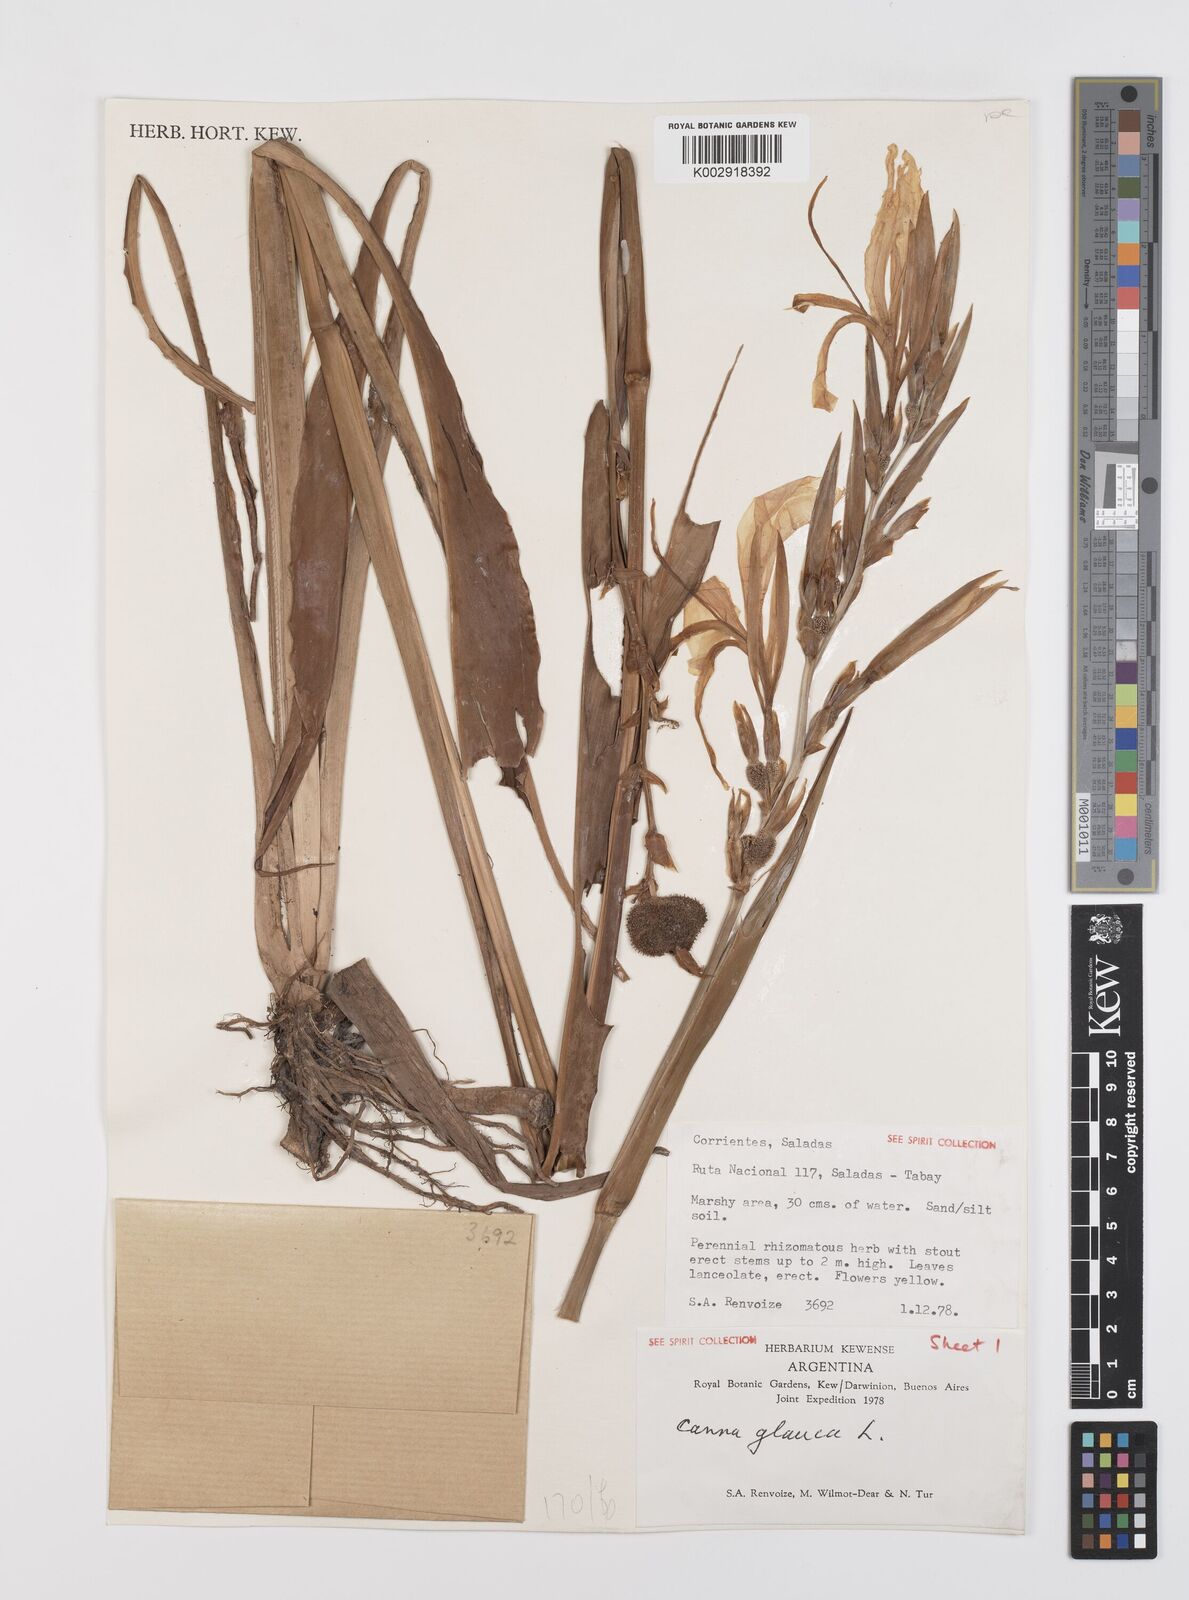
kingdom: Plantae
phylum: Tracheophyta
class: Liliopsida
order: Zingiberales
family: Cannaceae
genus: Canna
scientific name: Canna glauca
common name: Louisiana canna
